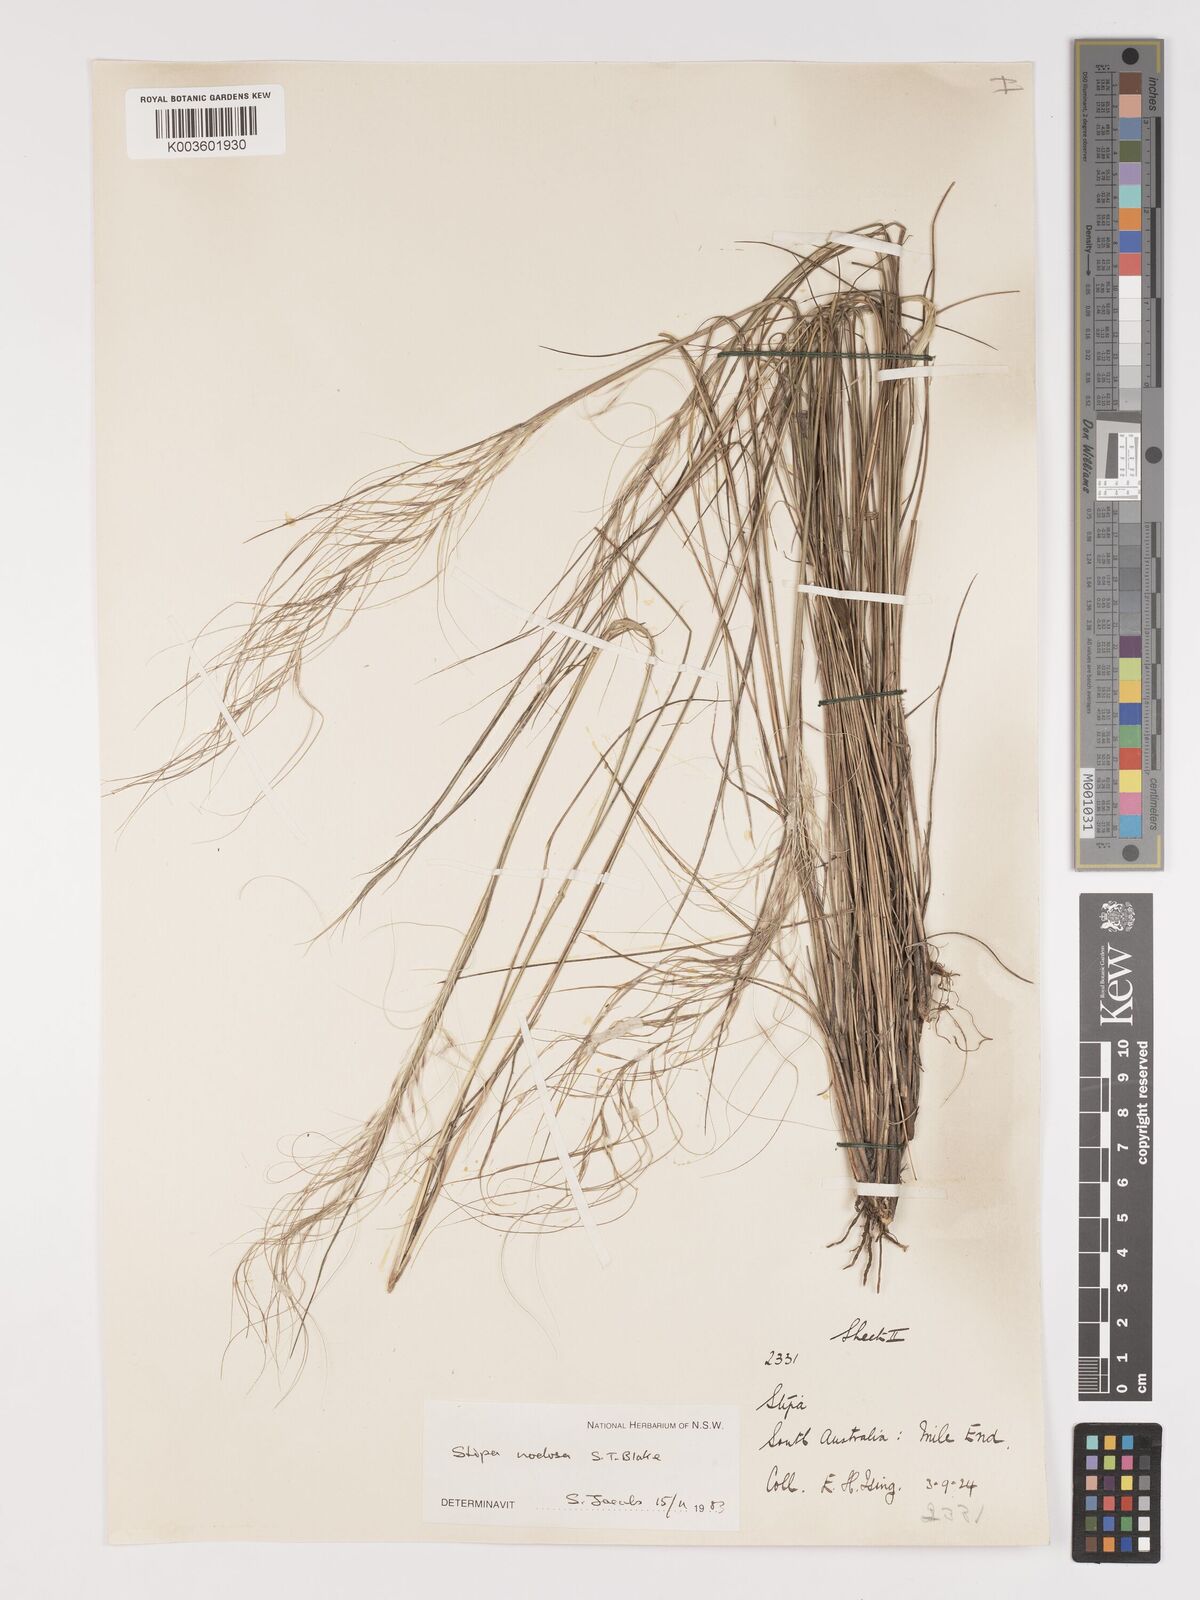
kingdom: Plantae
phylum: Tracheophyta
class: Liliopsida
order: Poales
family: Poaceae
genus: Austrostipa
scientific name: Austrostipa nodosa
